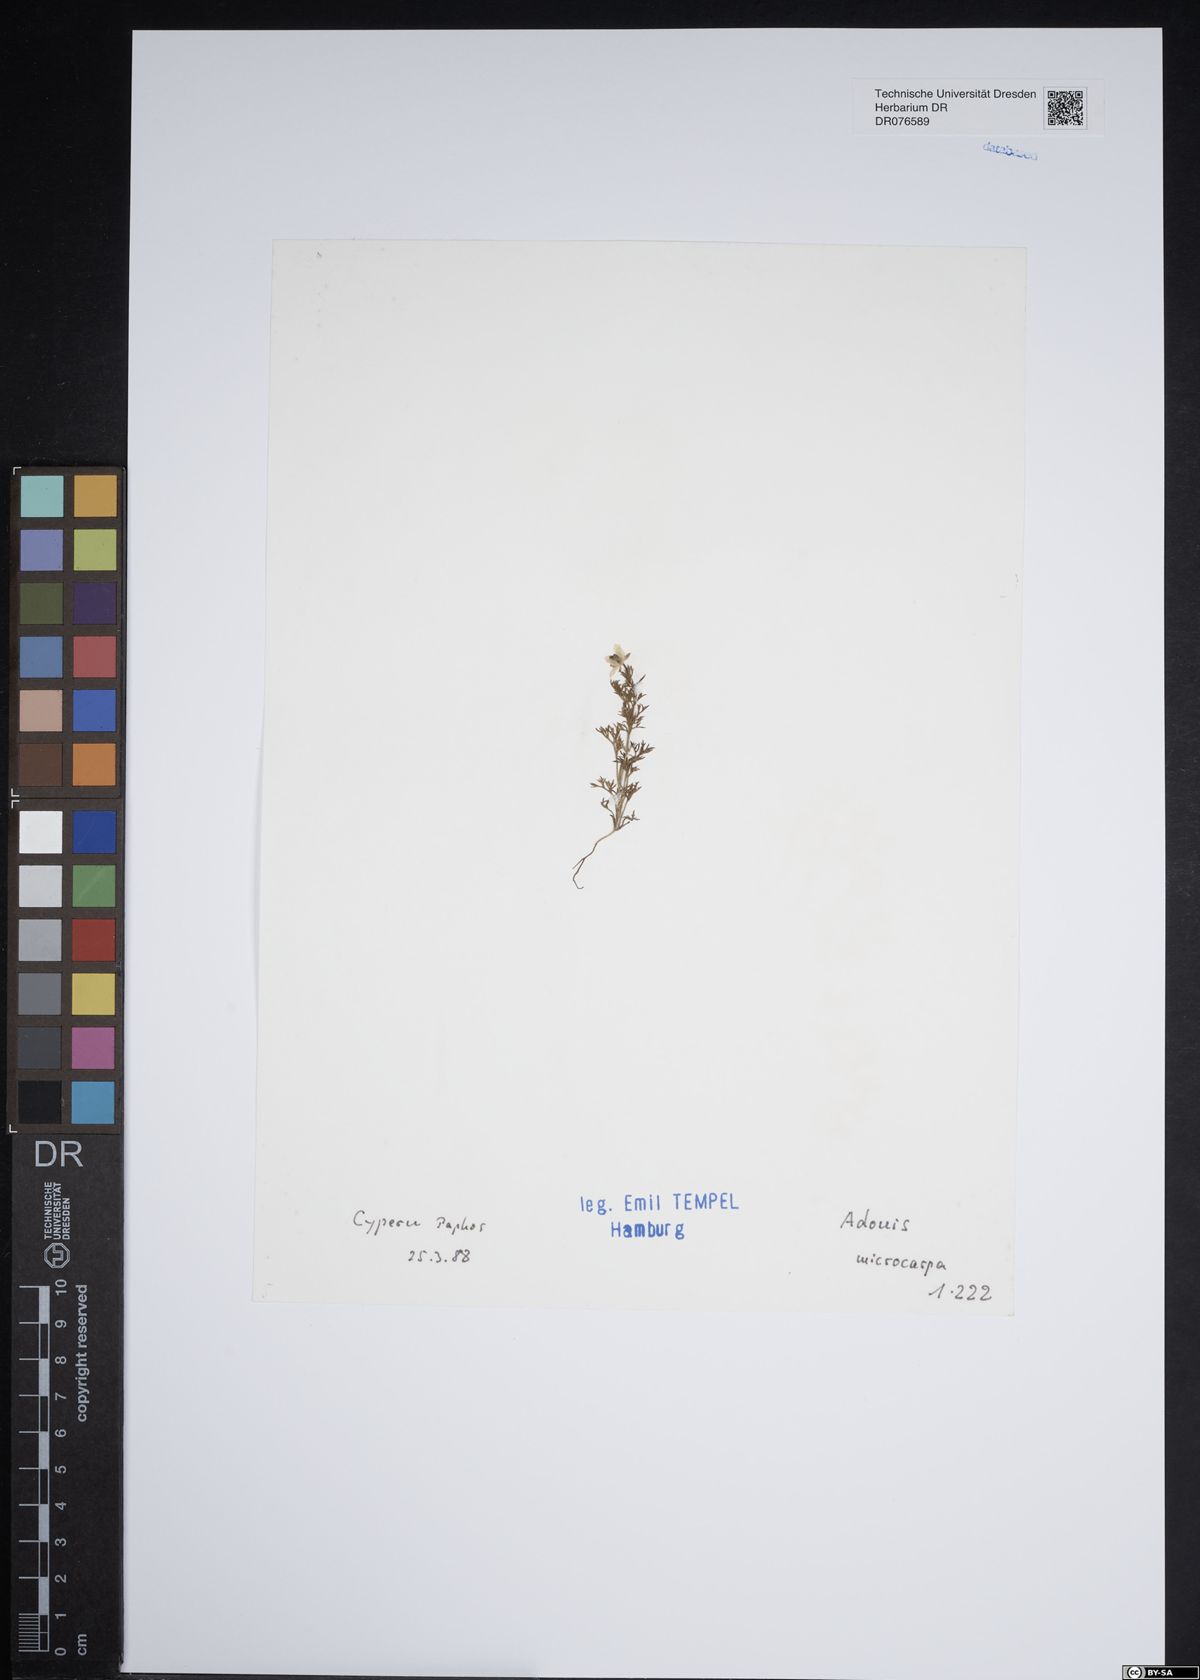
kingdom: Plantae
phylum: Tracheophyta
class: Magnoliopsida
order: Ranunculales
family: Ranunculaceae
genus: Adonis
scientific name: Adonis microcarpa
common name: Pheasant's-eye
